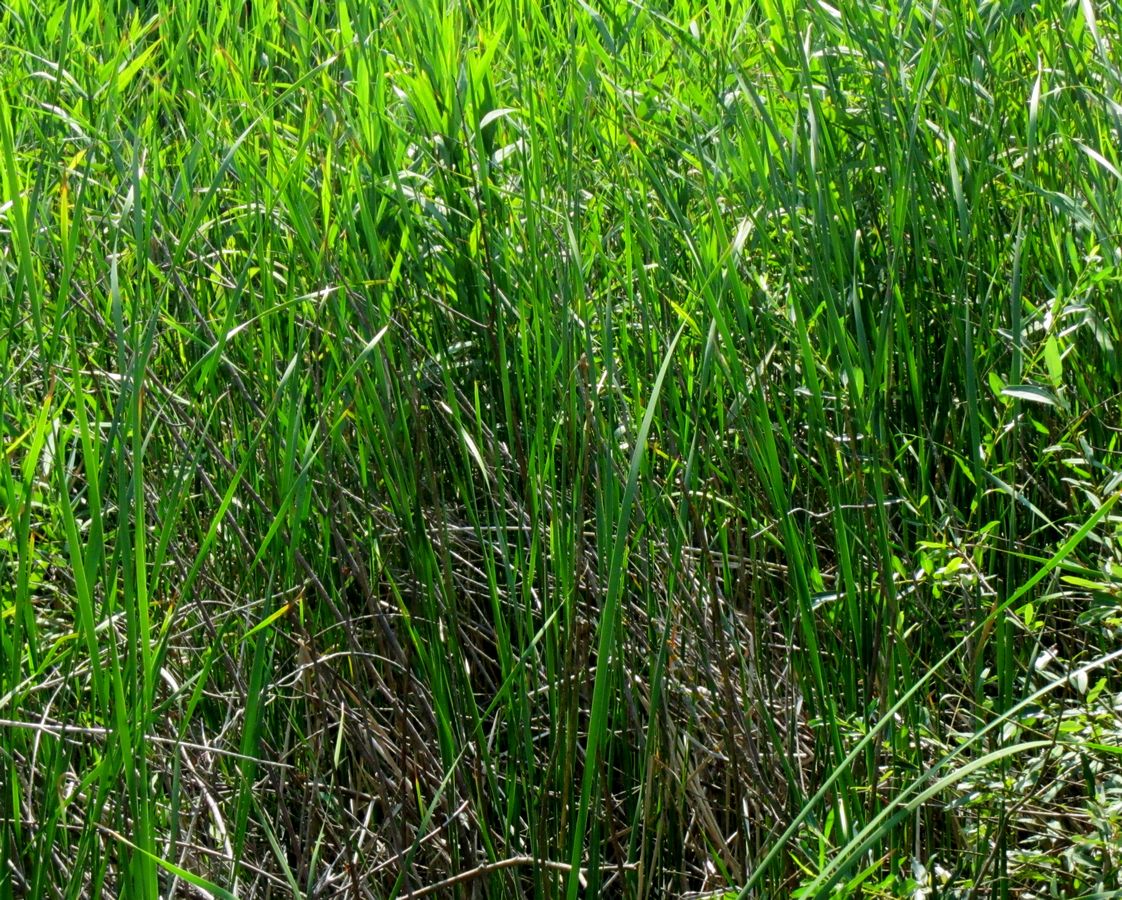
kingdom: Plantae
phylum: Tracheophyta
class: Liliopsida
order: Poales
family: Typhaceae
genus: Typha
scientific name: Typha angustifolia
